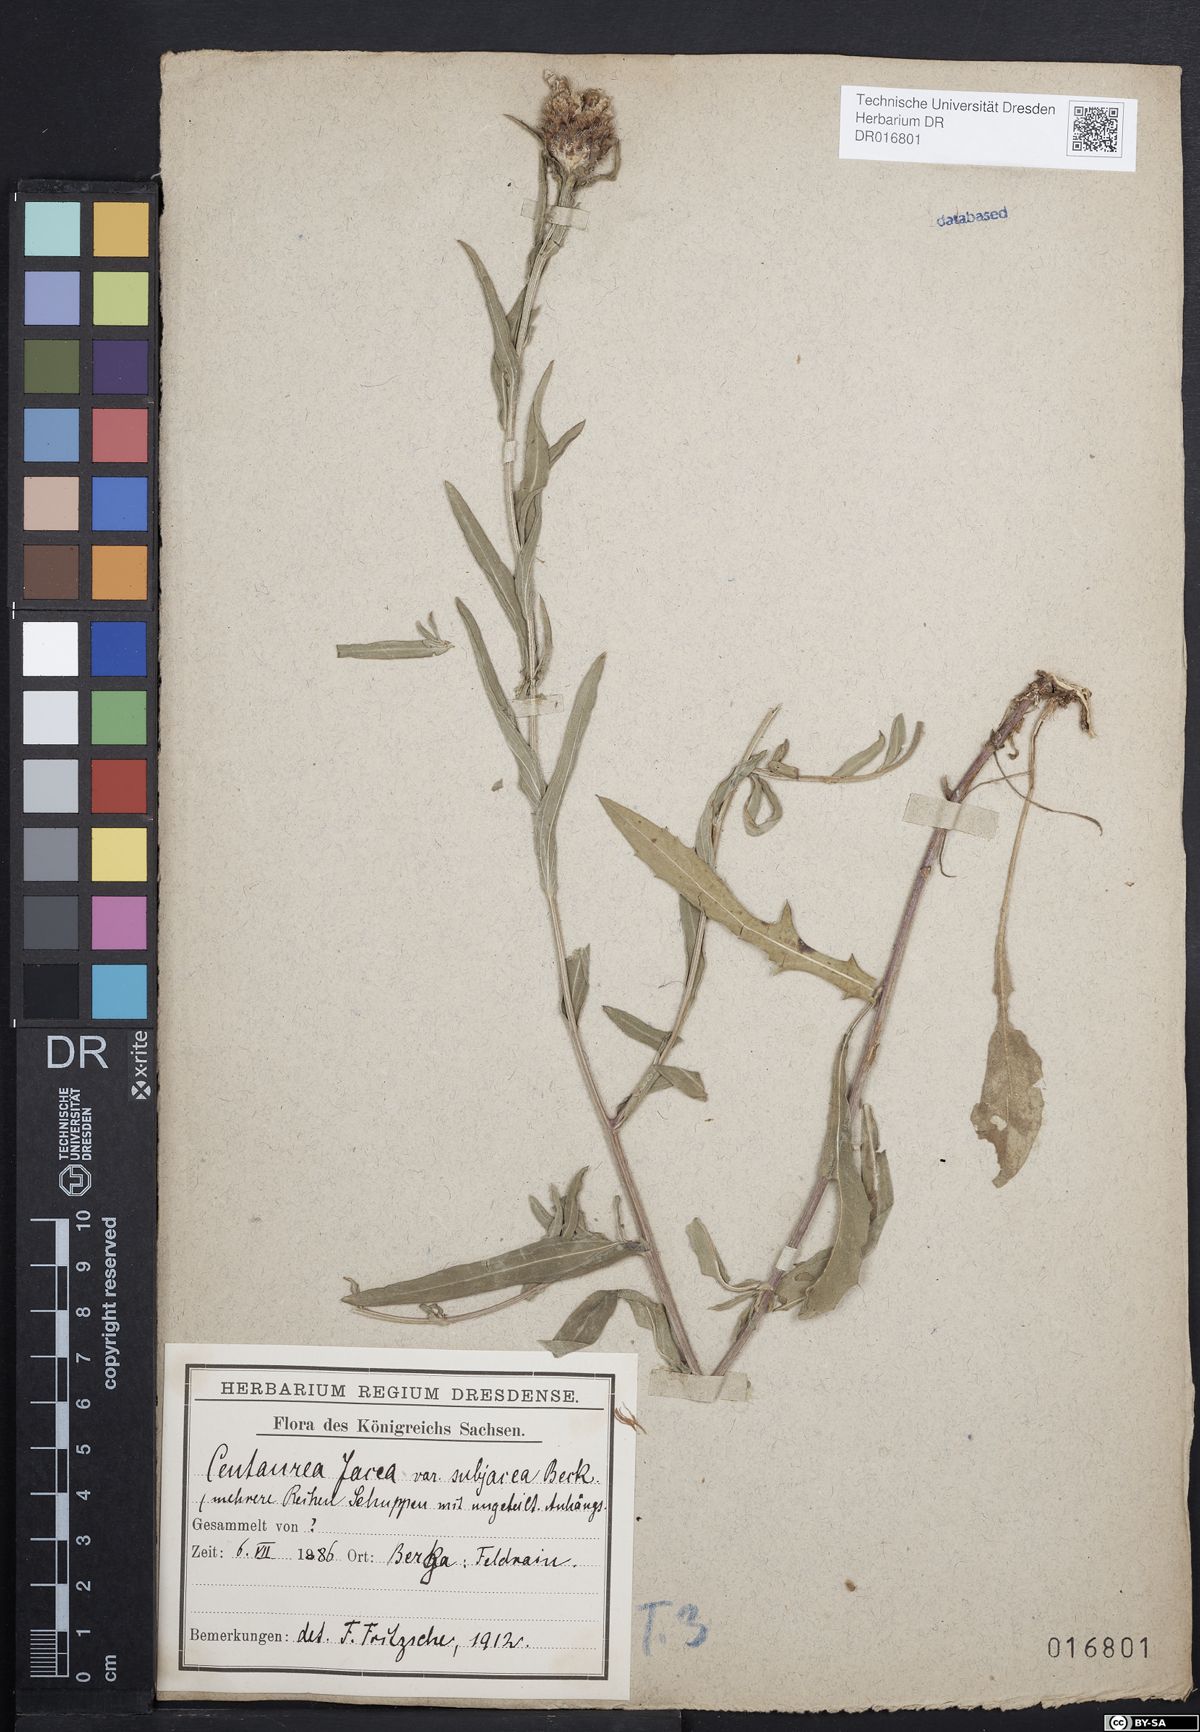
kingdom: Plantae
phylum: Tracheophyta
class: Magnoliopsida
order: Asterales
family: Asteraceae
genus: Centaurea
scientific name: Centaurea preissmannii
